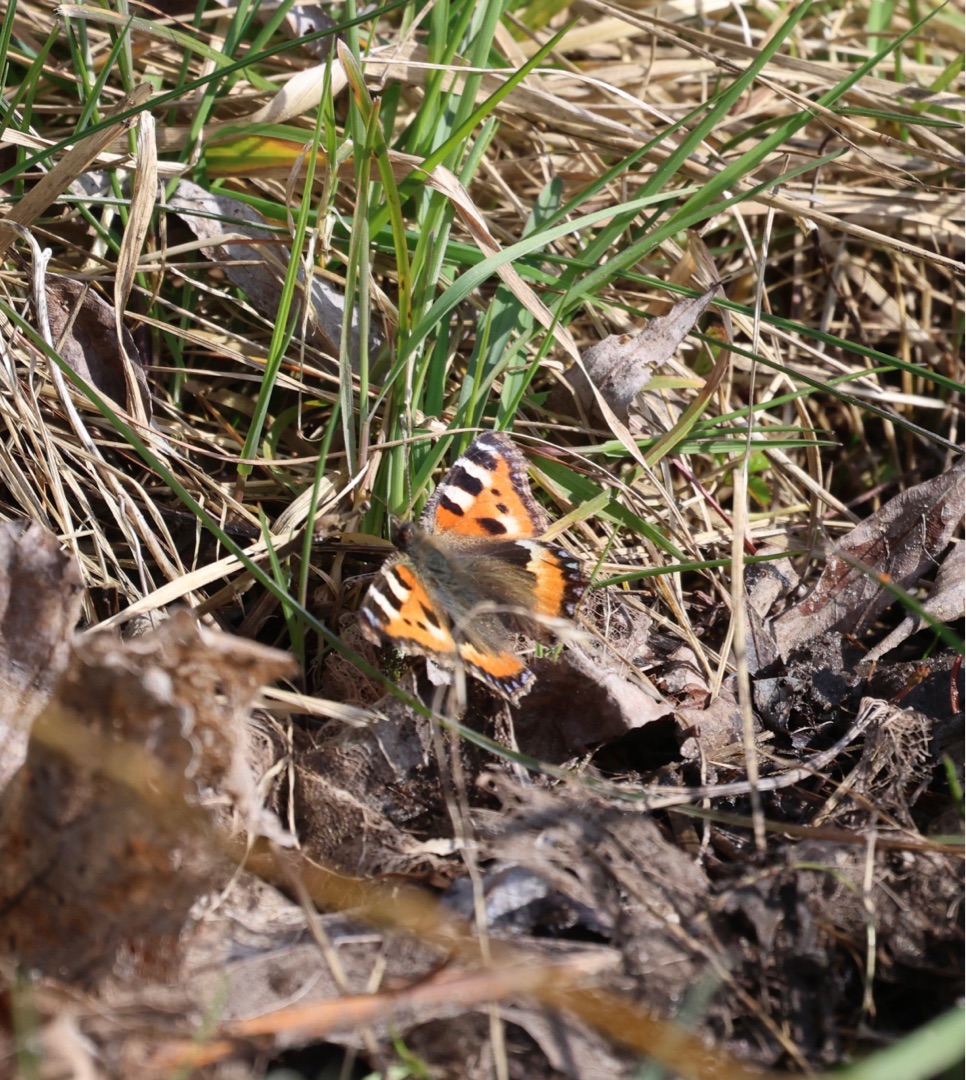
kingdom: Animalia
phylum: Arthropoda
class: Insecta
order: Lepidoptera
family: Nymphalidae
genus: Aglais
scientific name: Aglais urticae
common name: Nældens takvinge
